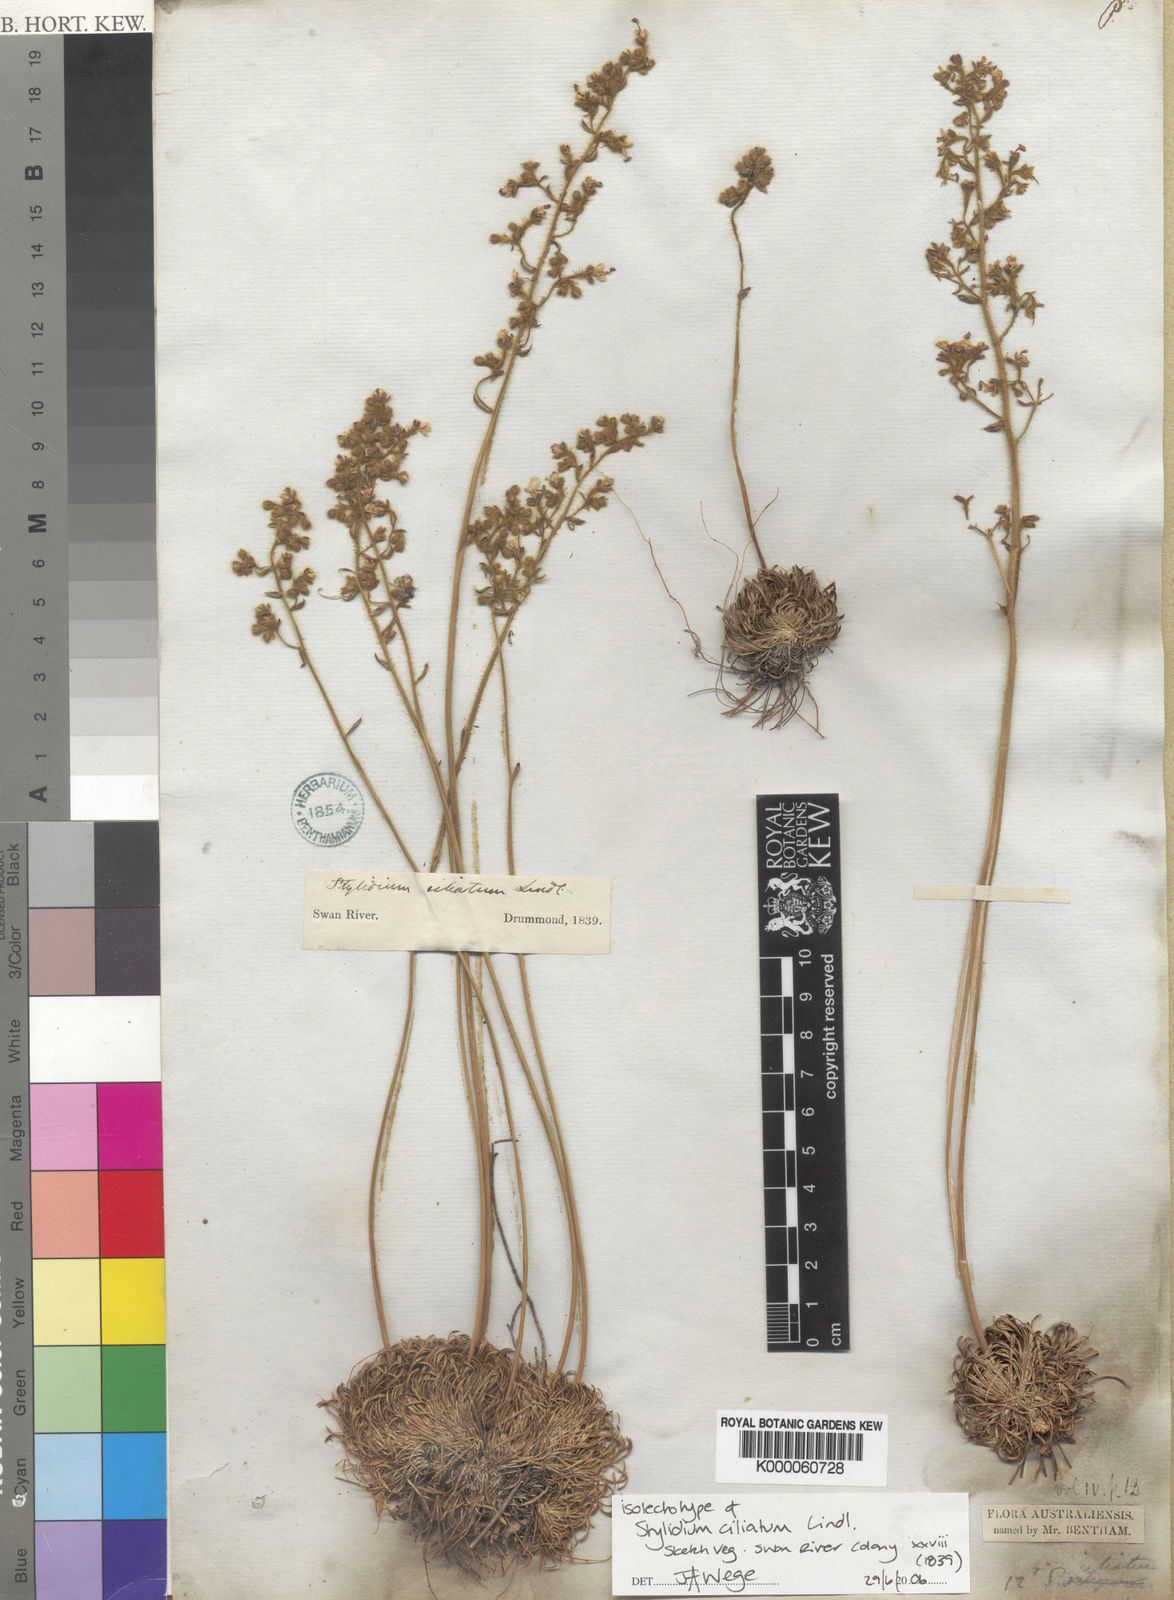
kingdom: Plantae
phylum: Tracheophyta
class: Magnoliopsida
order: Asterales
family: Stylidiaceae
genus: Stylidium
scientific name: Stylidium ciliatum
